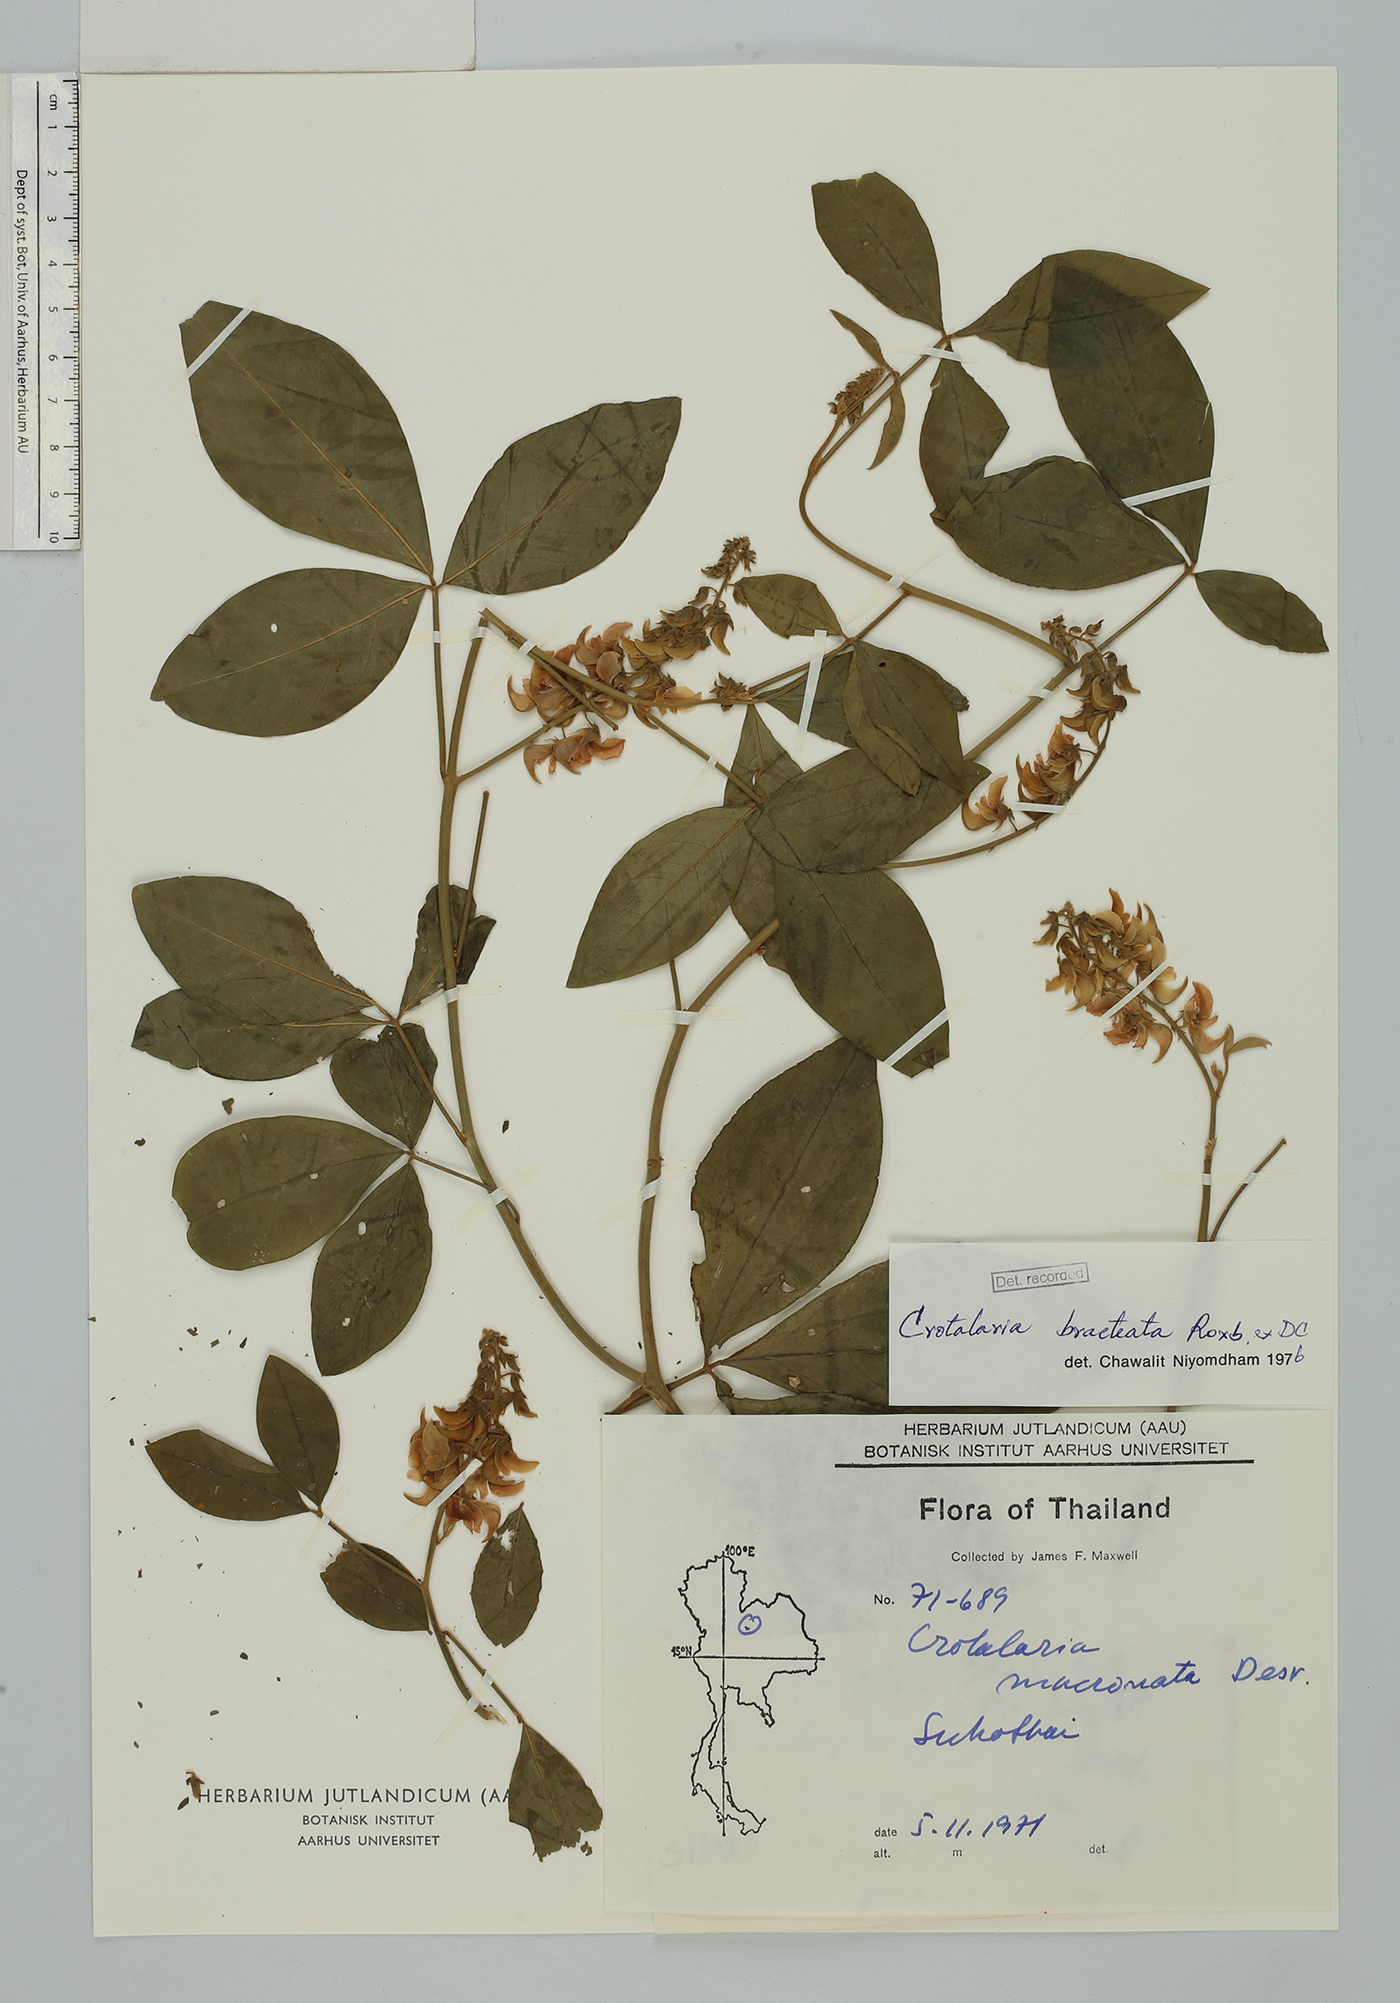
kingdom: Plantae
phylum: Tracheophyta
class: Magnoliopsida
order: Fabales
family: Fabaceae
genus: Crotalaria
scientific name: Crotalaria bracteata
